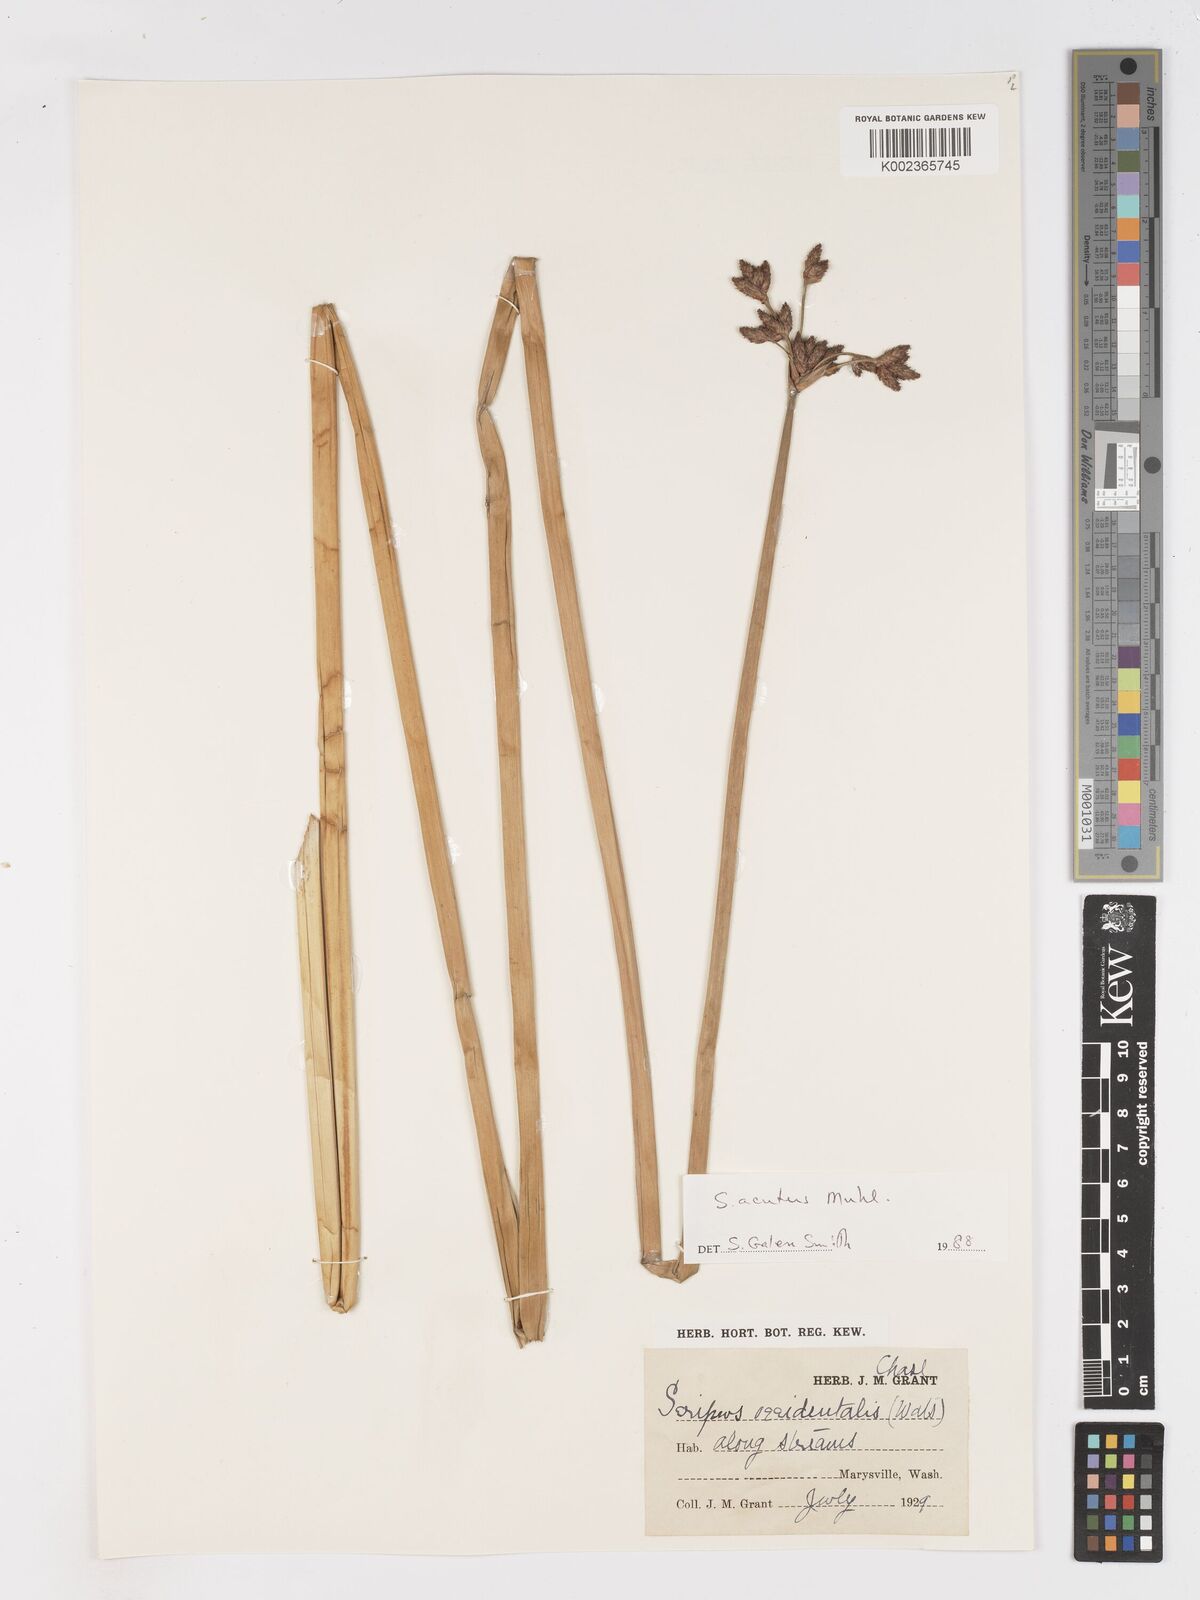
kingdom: Plantae
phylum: Tracheophyta
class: Liliopsida
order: Poales
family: Cyperaceae
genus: Schoenoplectus
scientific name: Schoenoplectus
